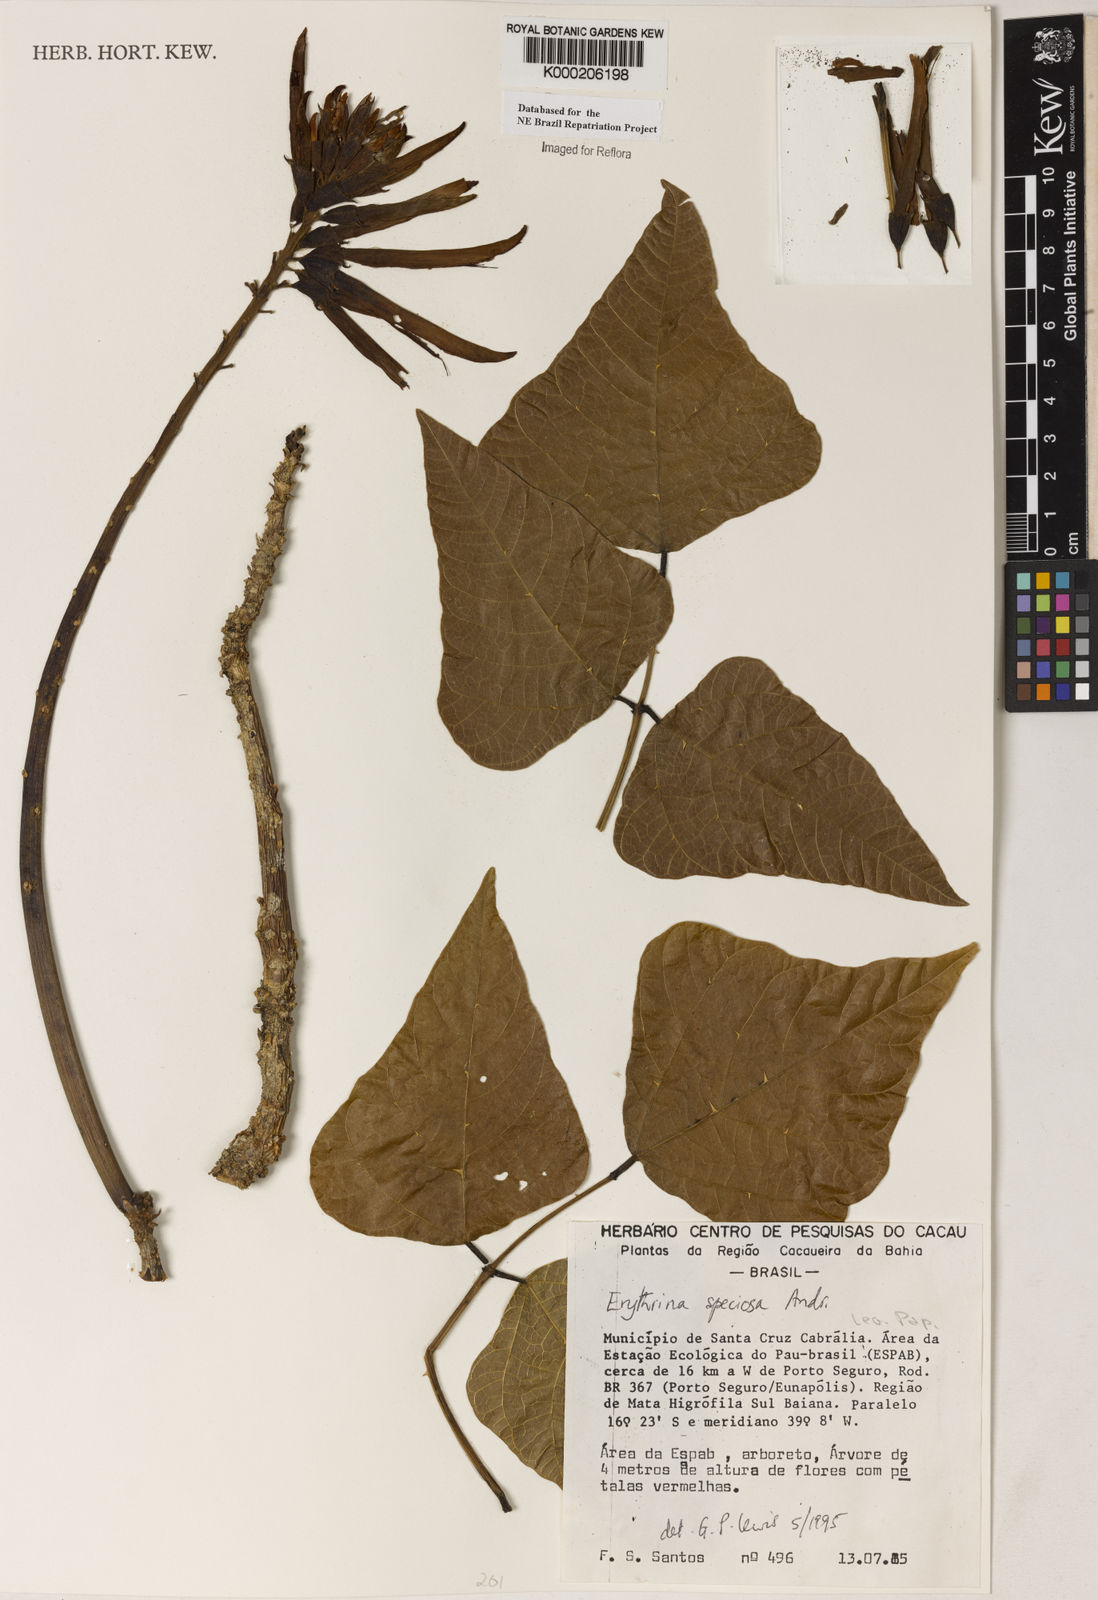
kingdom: Plantae
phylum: Tracheophyta
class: Magnoliopsida
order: Fabales
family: Fabaceae
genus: Erythrina
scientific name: Erythrina speciosa
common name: Coral tree
